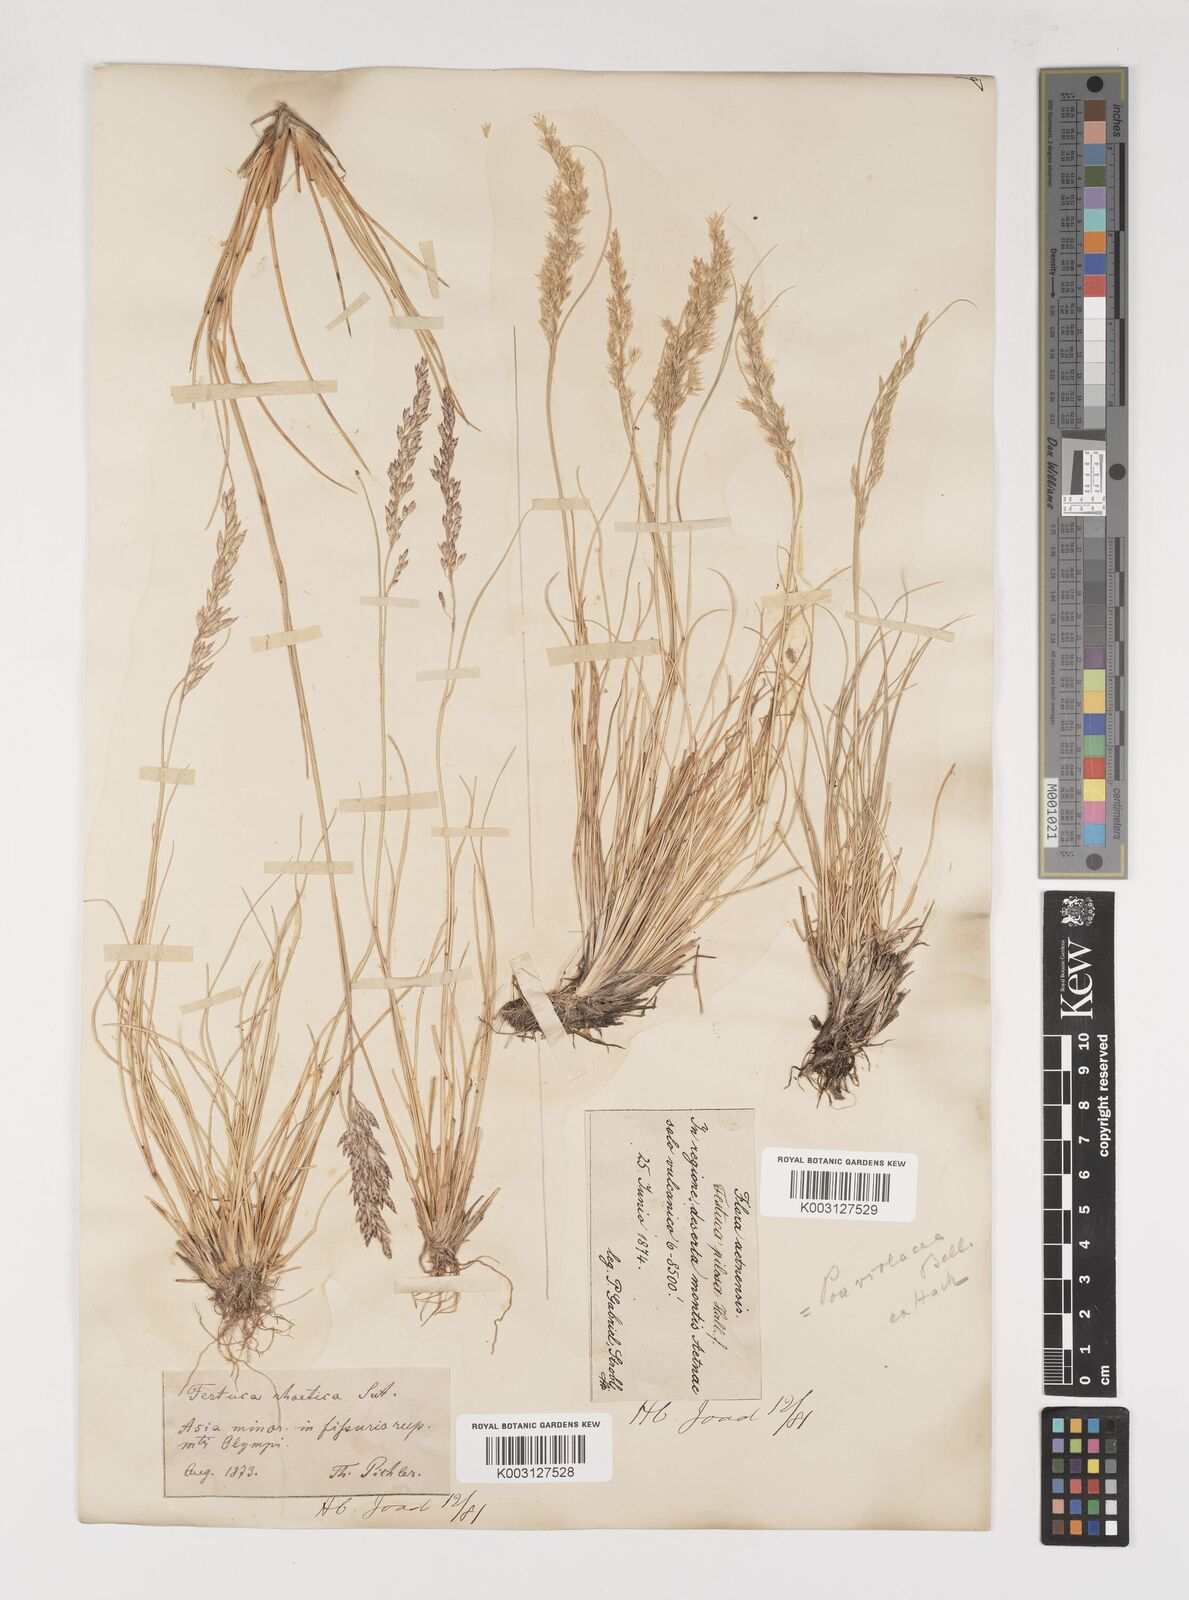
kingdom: Plantae
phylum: Tracheophyta
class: Liliopsida
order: Poales
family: Poaceae
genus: Bellardiochloa
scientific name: Bellardiochloa variegata
